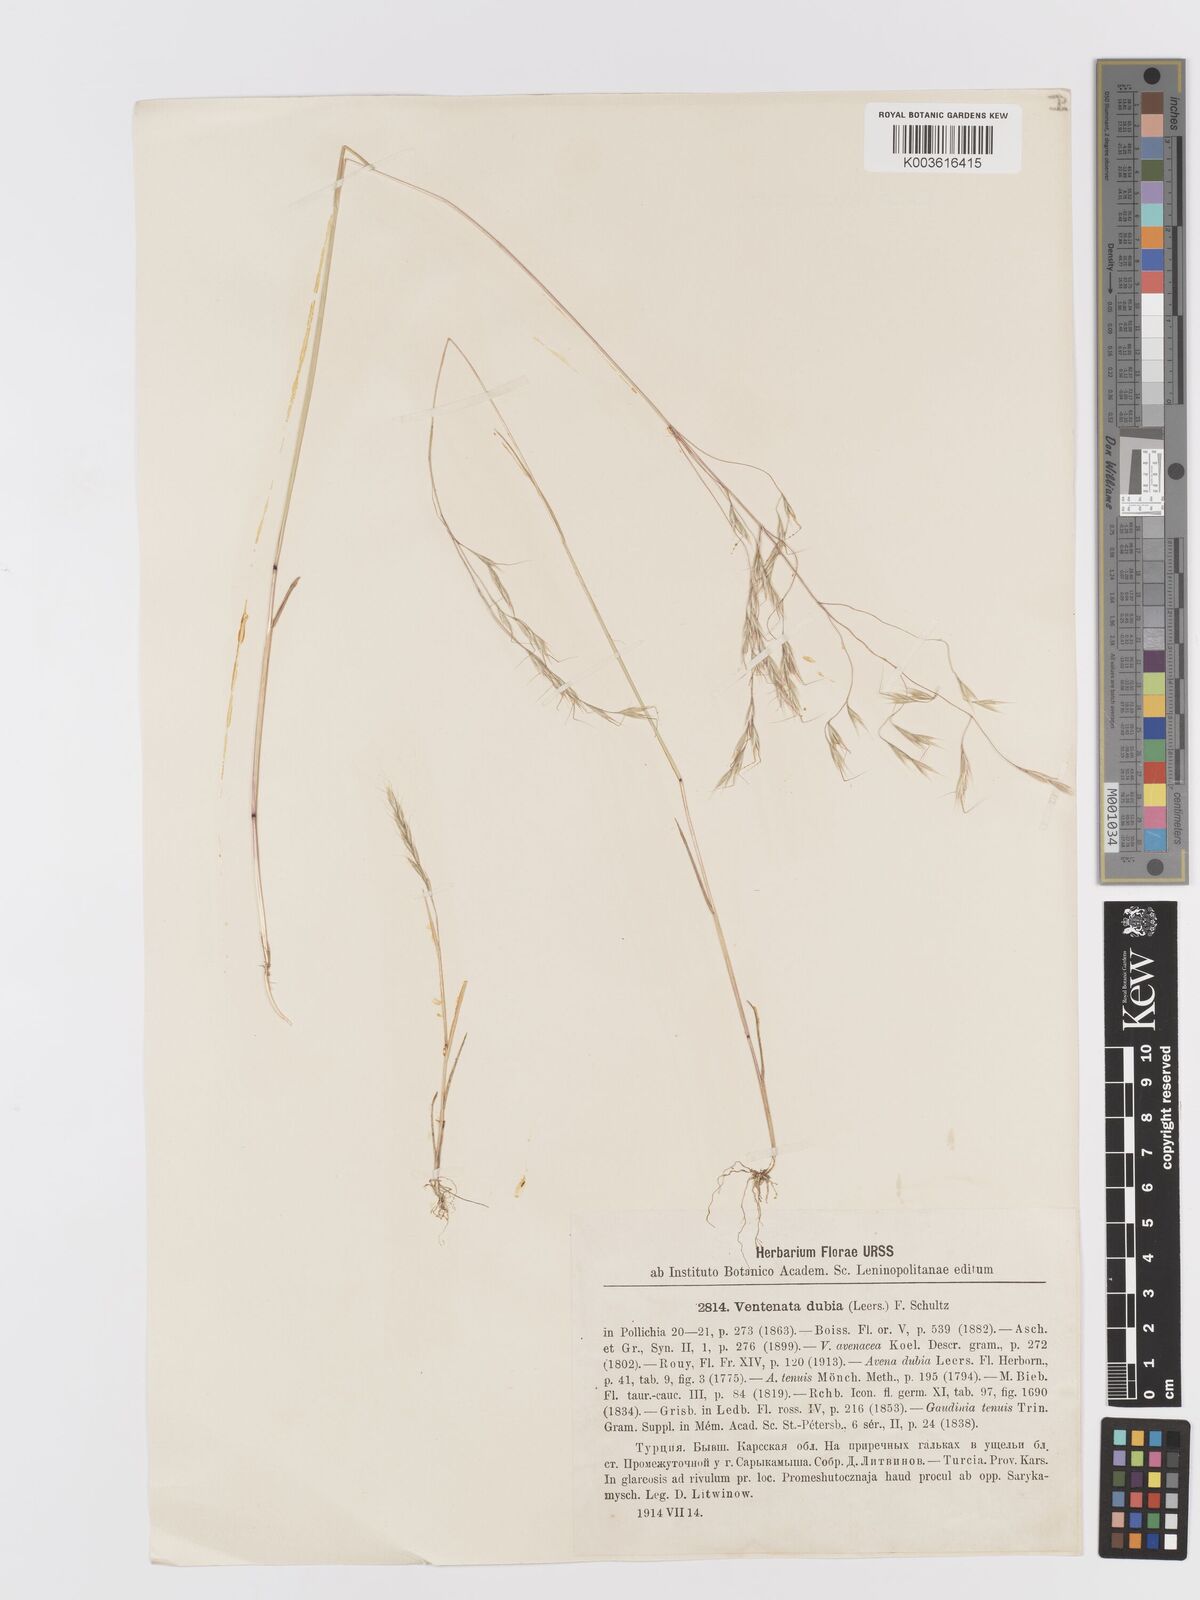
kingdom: Plantae
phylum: Tracheophyta
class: Liliopsida
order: Poales
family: Poaceae
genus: Ventenata
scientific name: Ventenata dubia
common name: North africa grass
